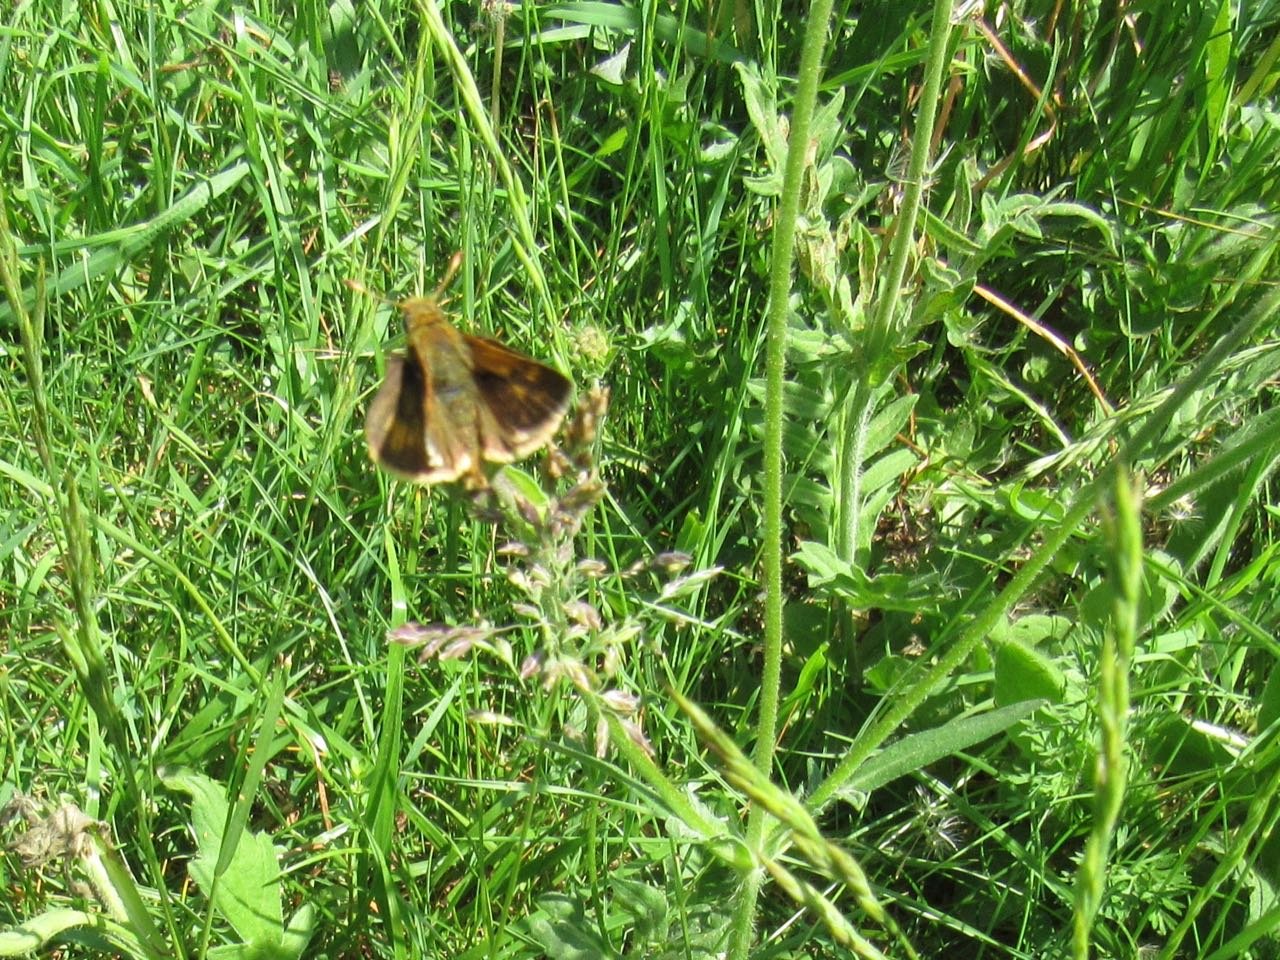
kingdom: Animalia
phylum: Arthropoda
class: Insecta
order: Lepidoptera
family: Hesperiidae
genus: Polites
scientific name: Polites coras
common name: Peck's Skipper
